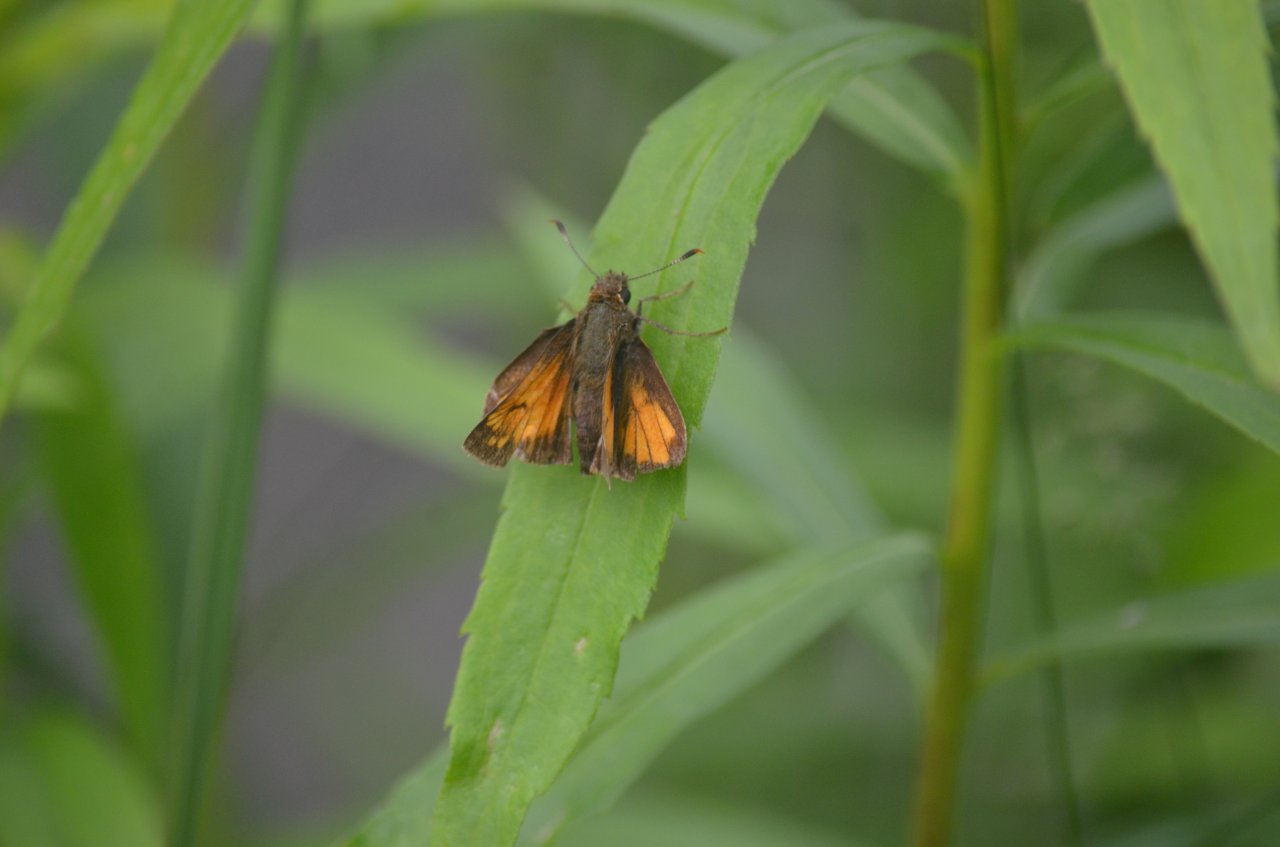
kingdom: Animalia
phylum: Arthropoda
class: Insecta
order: Lepidoptera
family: Hesperiidae
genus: Lon
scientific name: Lon hobomok
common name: Hobomok Skipper
